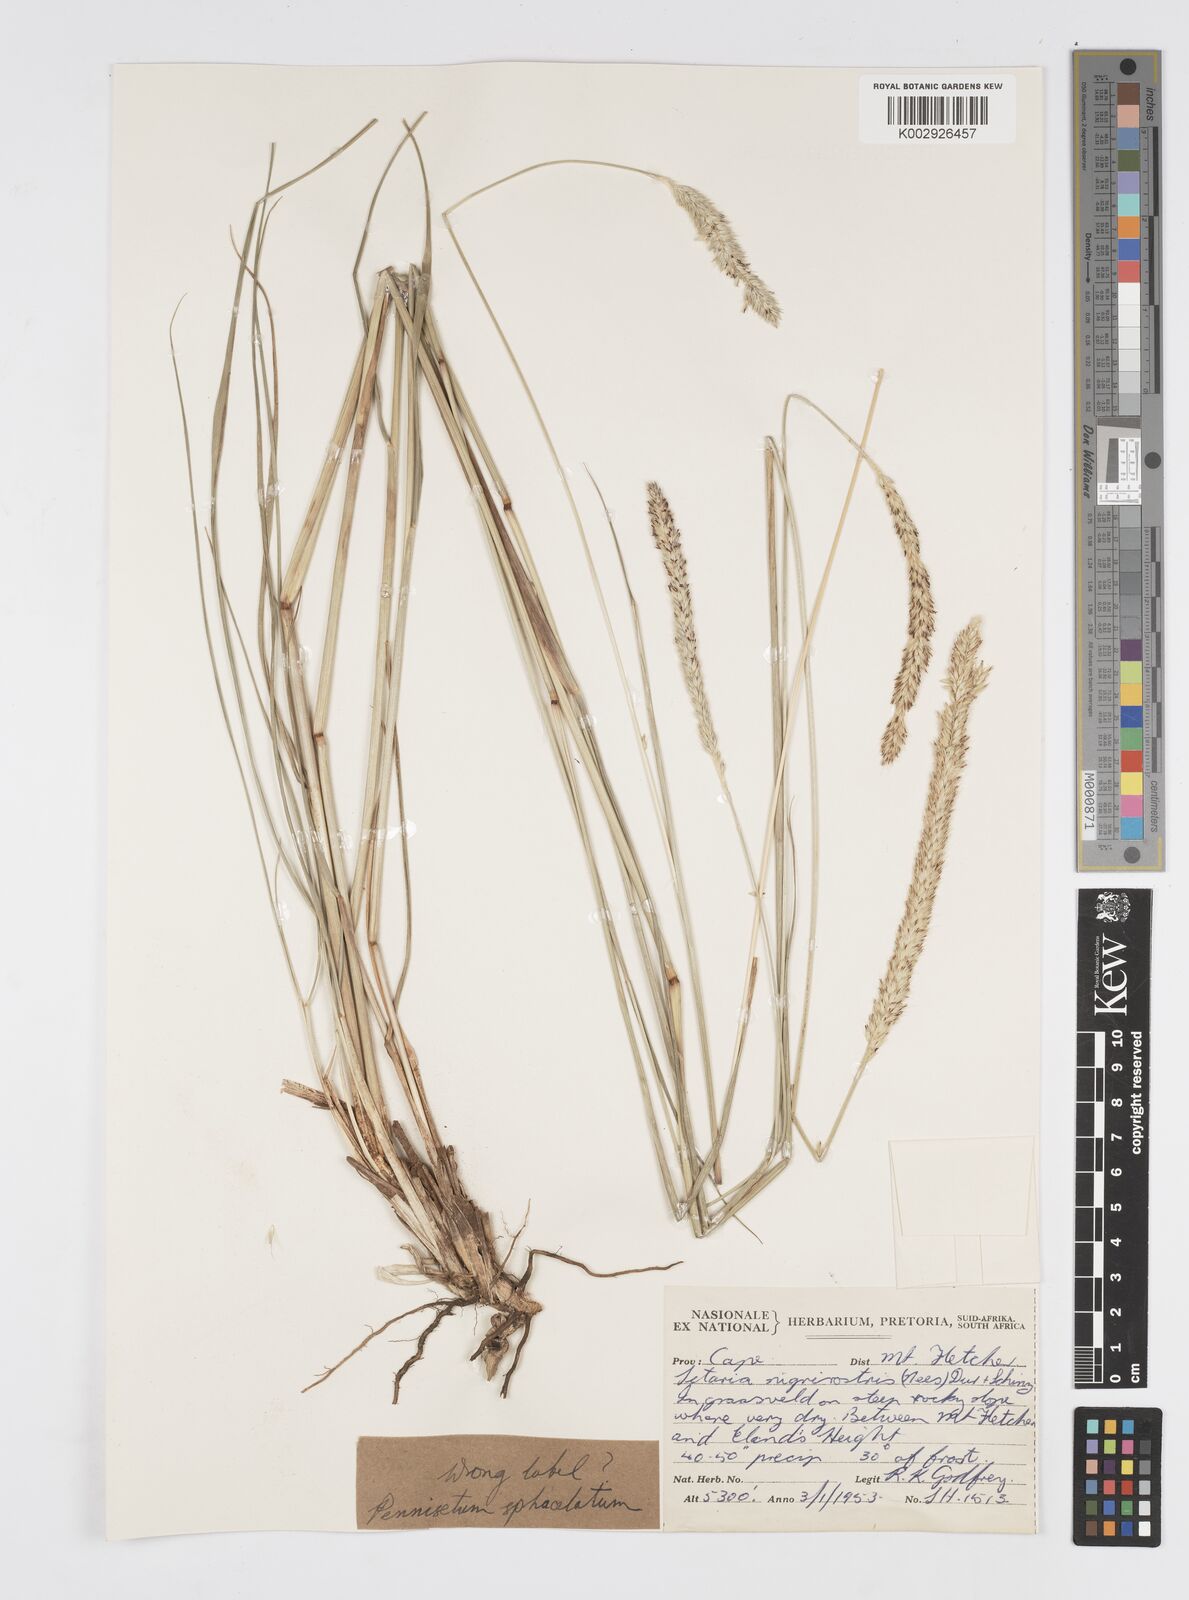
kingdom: Plantae
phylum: Tracheophyta
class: Liliopsida
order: Poales
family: Poaceae
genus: Cenchrus
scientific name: Cenchrus purpureus
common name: Elephant grass
